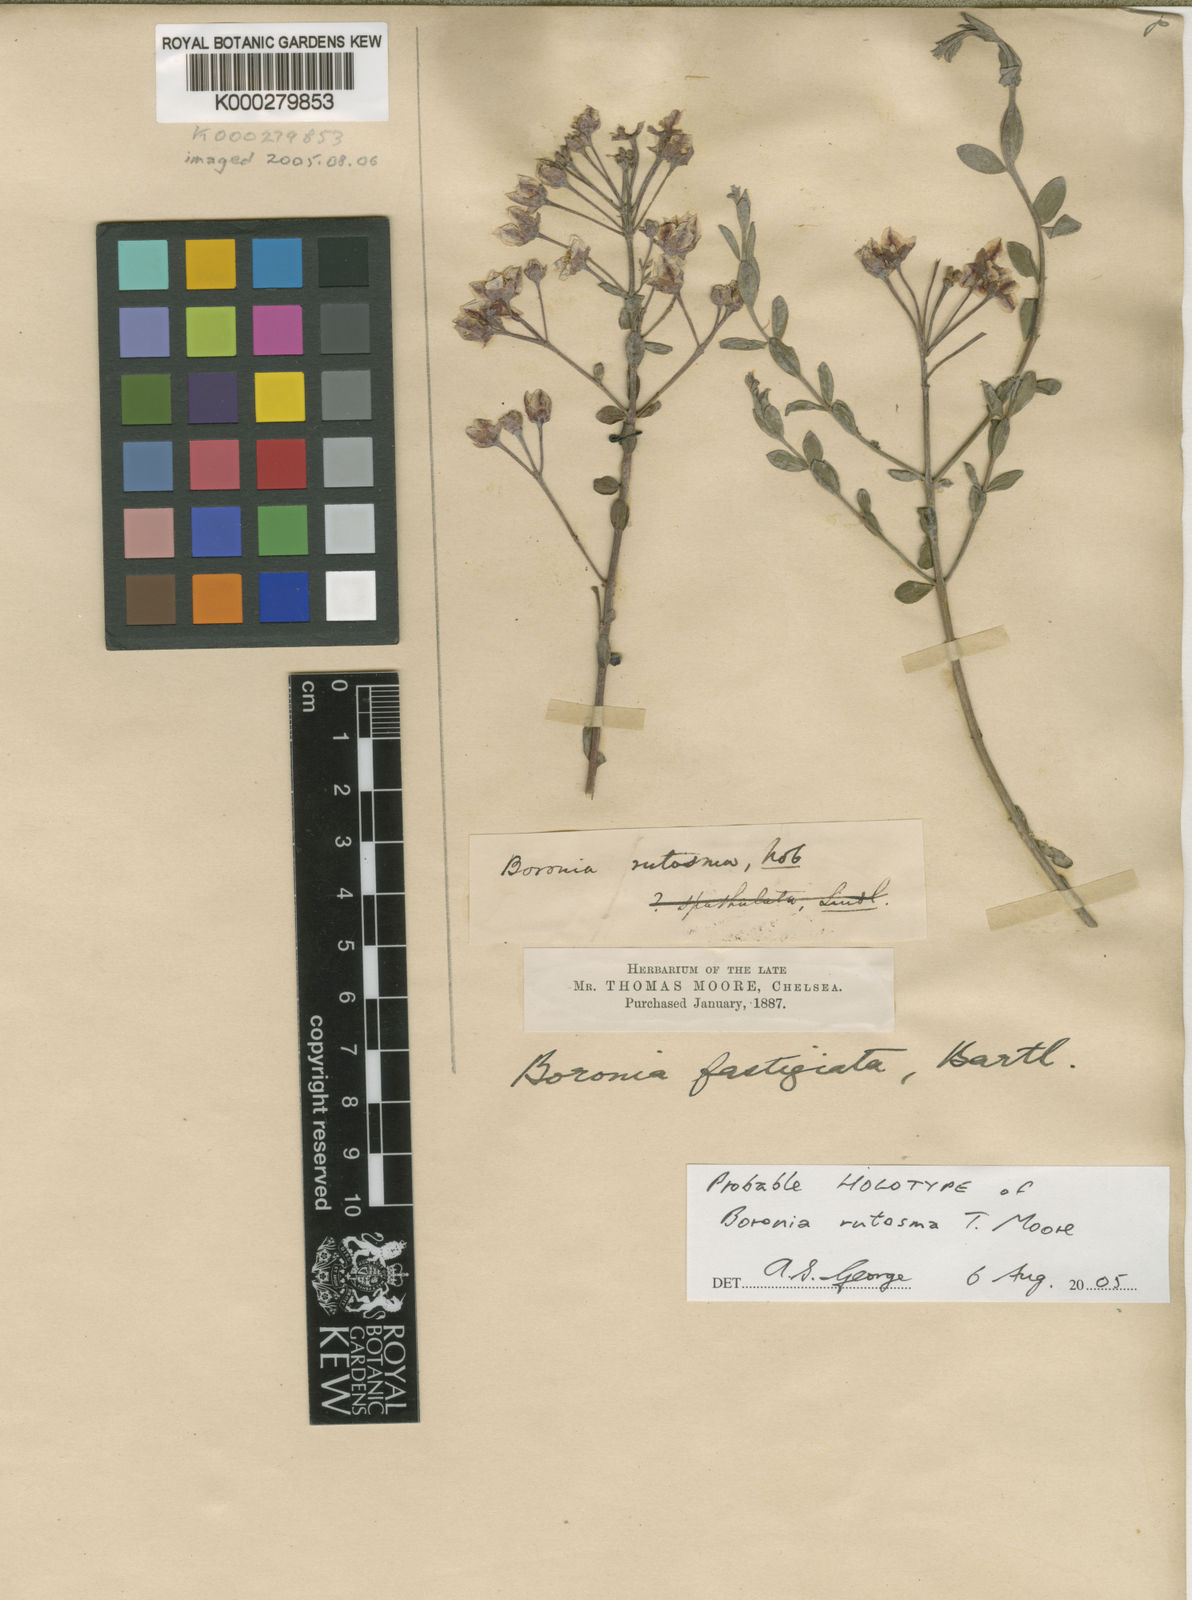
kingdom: Plantae
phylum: Tracheophyta
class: Magnoliopsida
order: Sapindales
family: Rutaceae
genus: Boronia
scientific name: Boronia fastigiata
